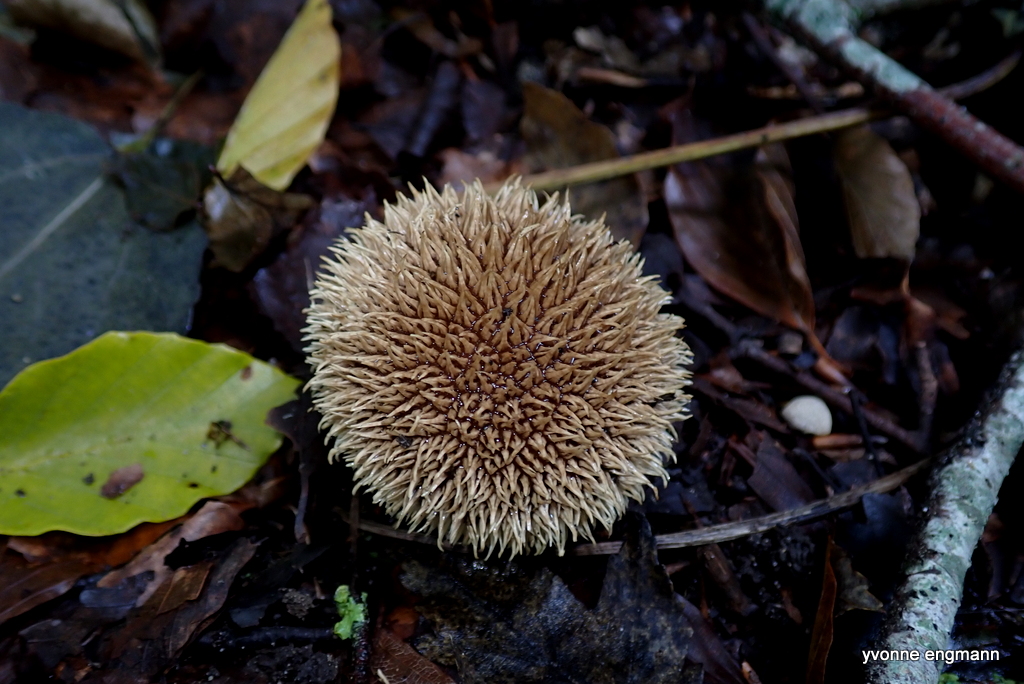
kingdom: Fungi
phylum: Basidiomycota
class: Agaricomycetes
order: Agaricales
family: Lycoperdaceae
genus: Lycoperdon
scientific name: Lycoperdon echinatum
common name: pindsvine-støvbold
